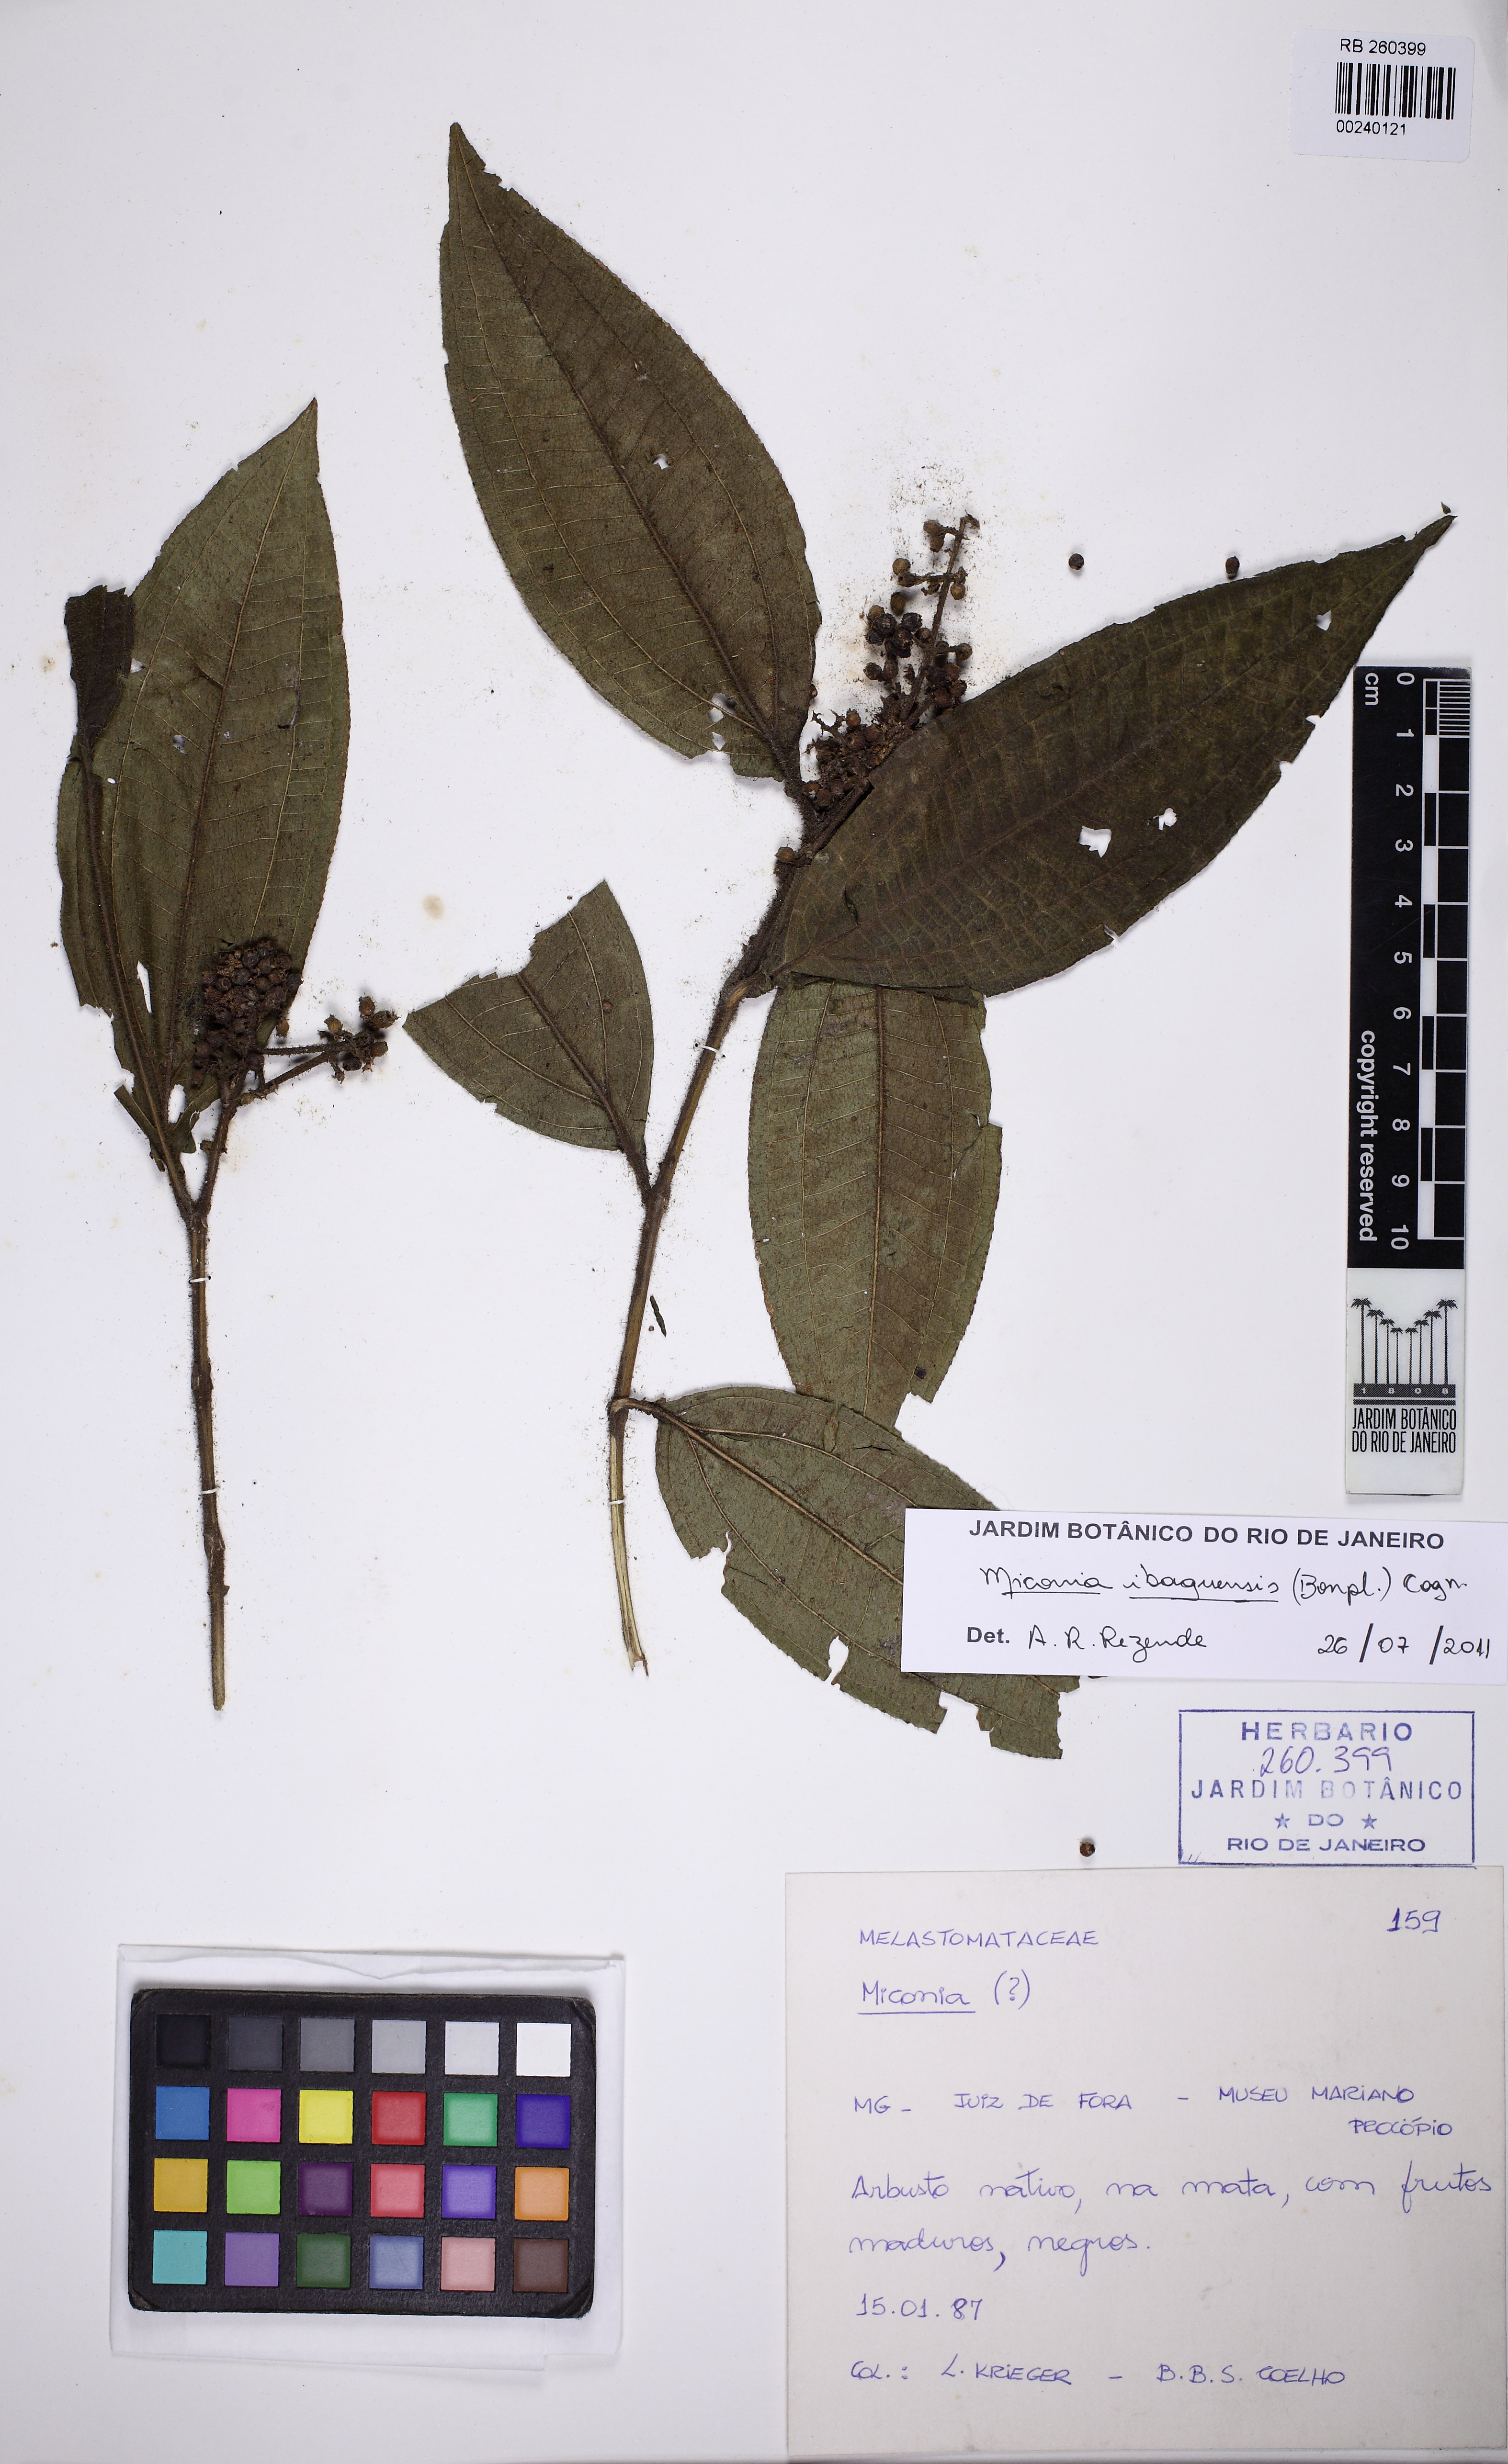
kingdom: Plantae
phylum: Tracheophyta
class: Magnoliopsida
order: Myrtales
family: Melastomataceae
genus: Miconia
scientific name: Miconia ibaguensis
